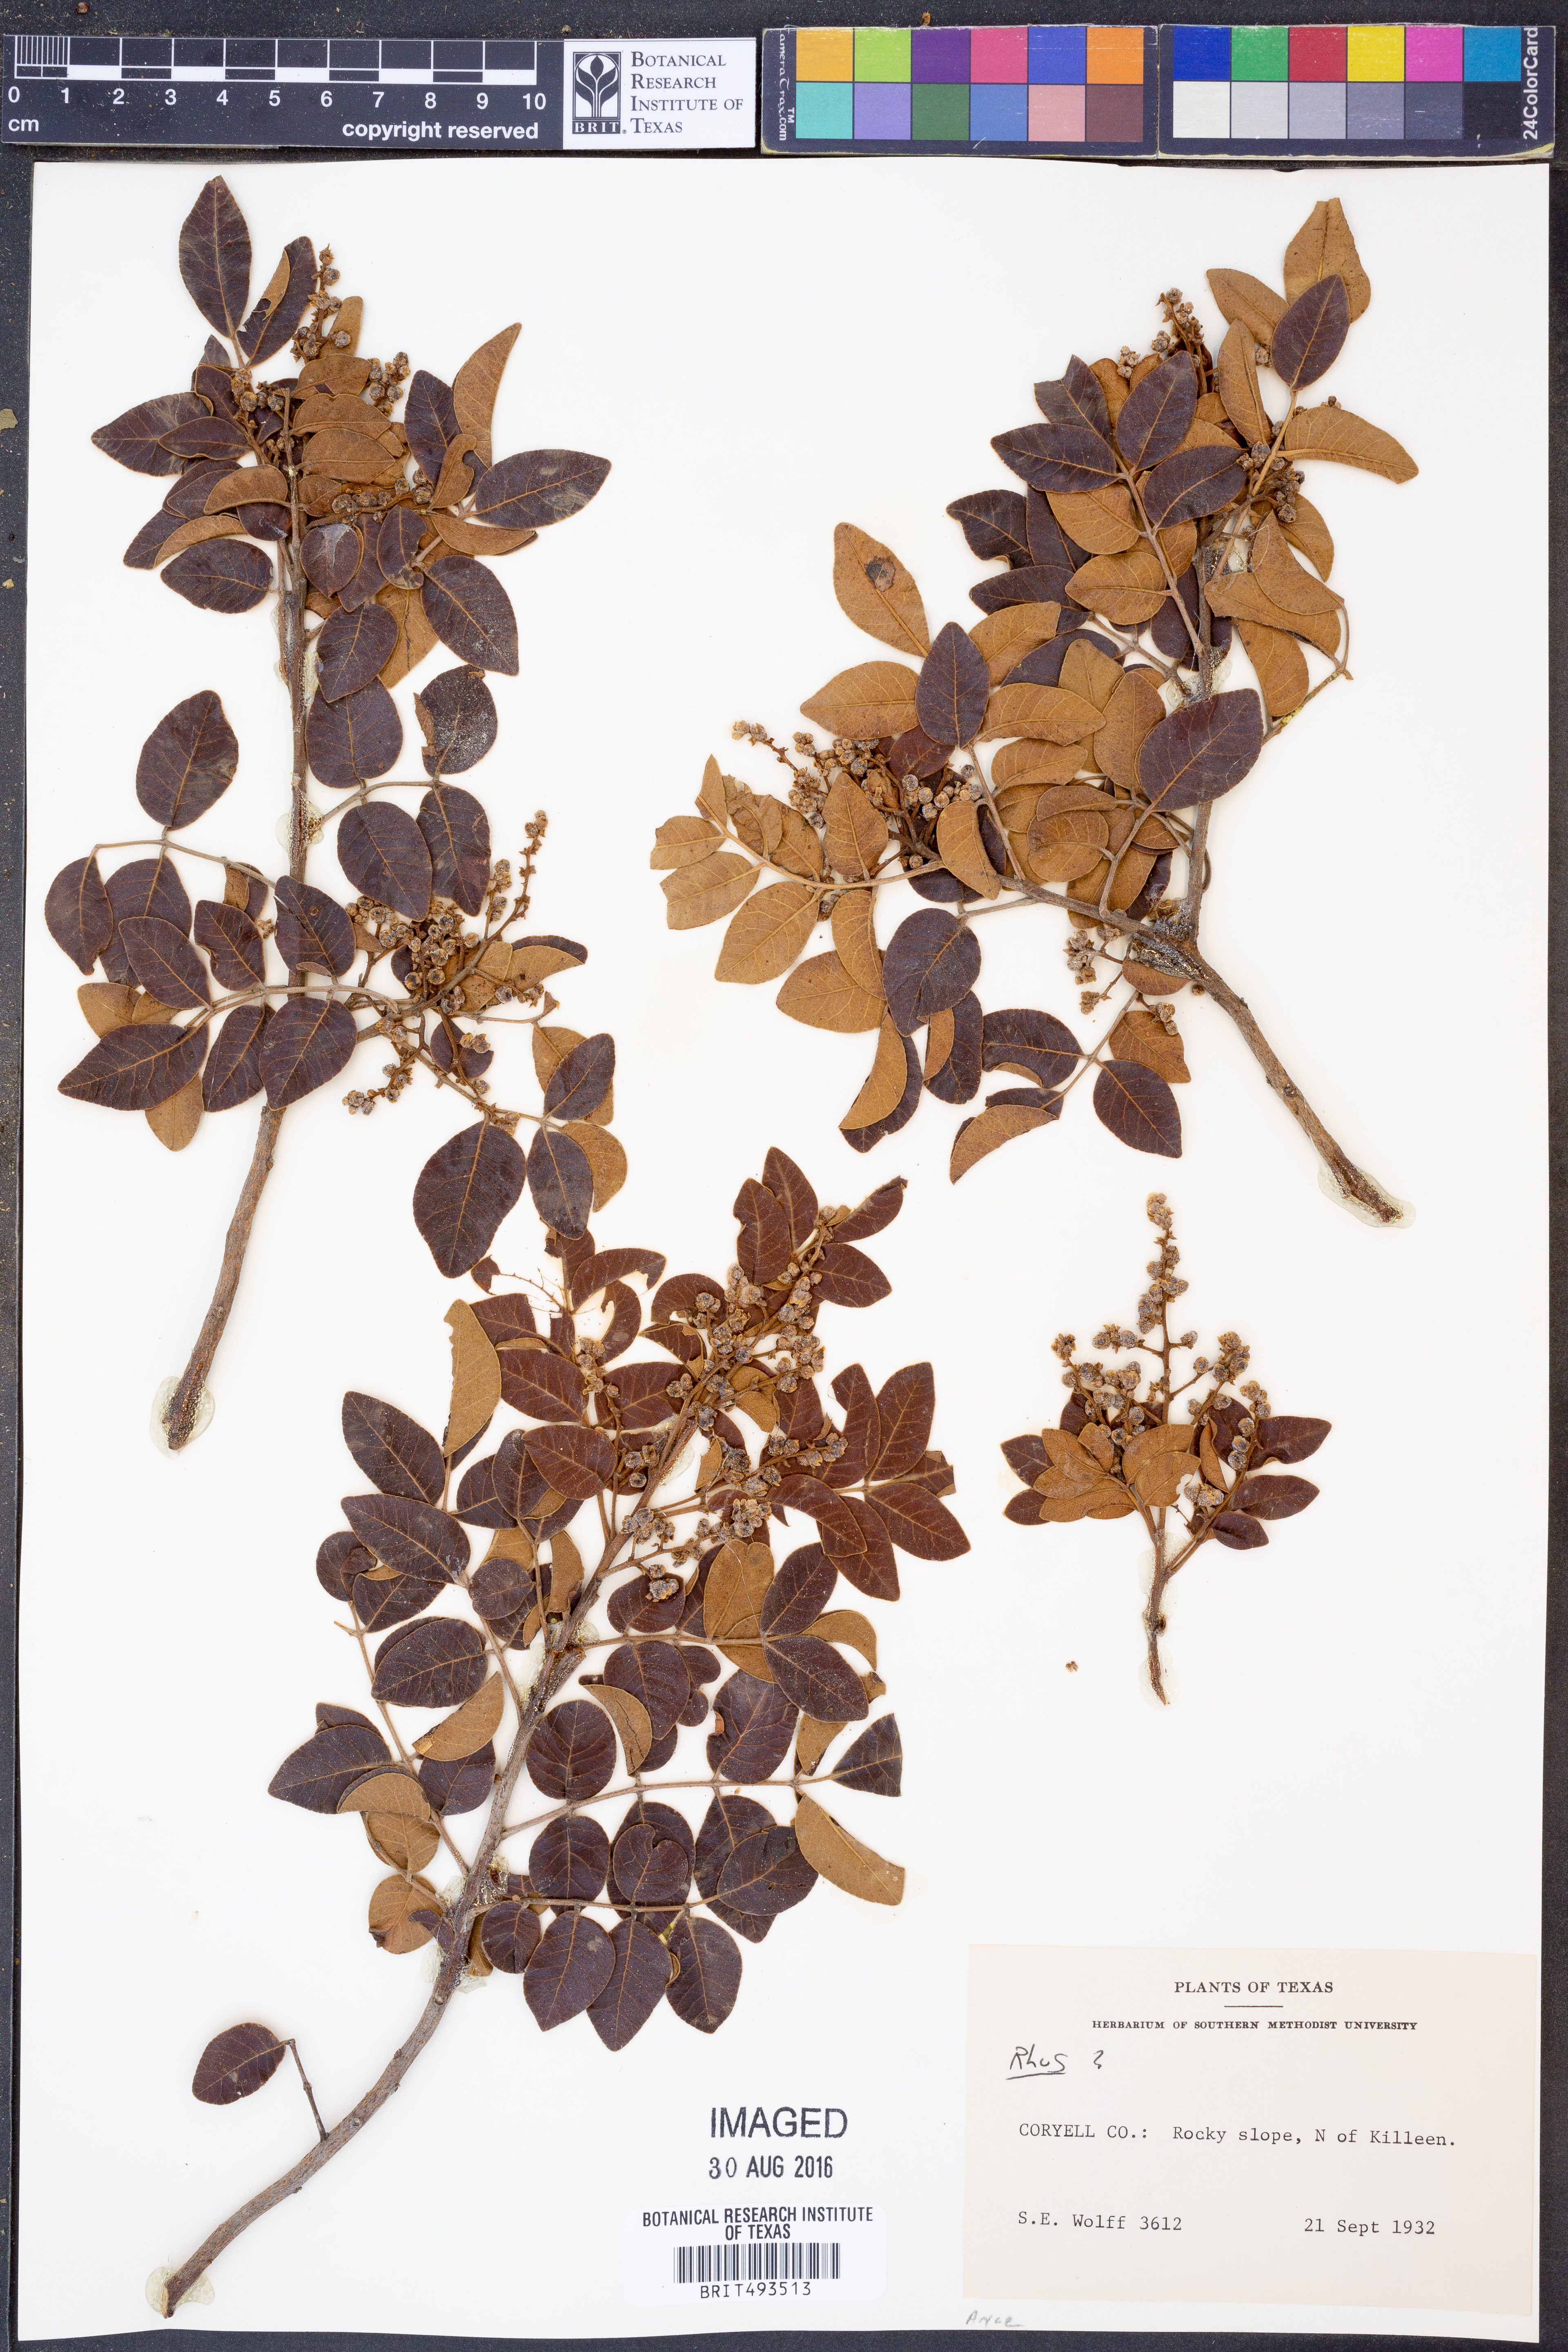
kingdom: Plantae
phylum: Tracheophyta
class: Magnoliopsida
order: Sapindales
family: Anacardiaceae
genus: Rhus
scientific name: Rhus
